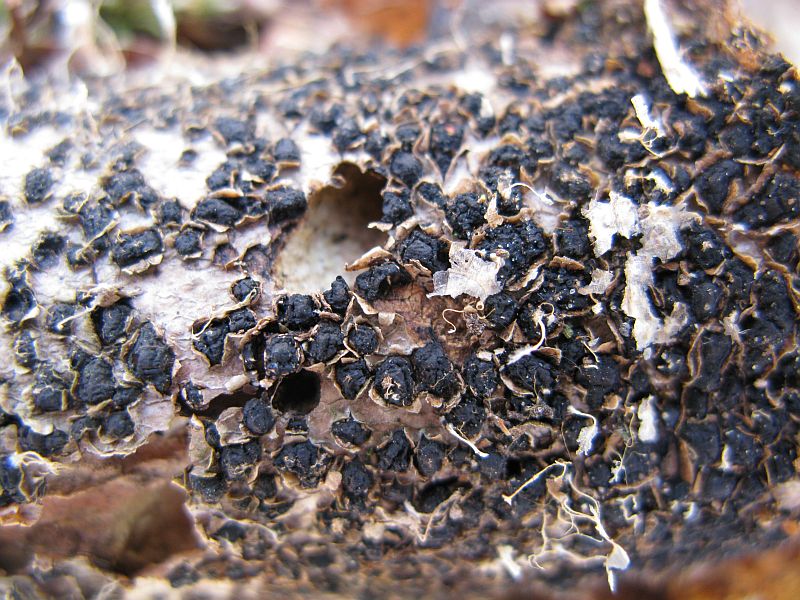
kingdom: Fungi
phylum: Ascomycota
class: Sordariomycetes
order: Xylariales
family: Melogrammataceae
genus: Melogramma
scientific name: Melogramma spiniferum
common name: bøgefod-kulhals
